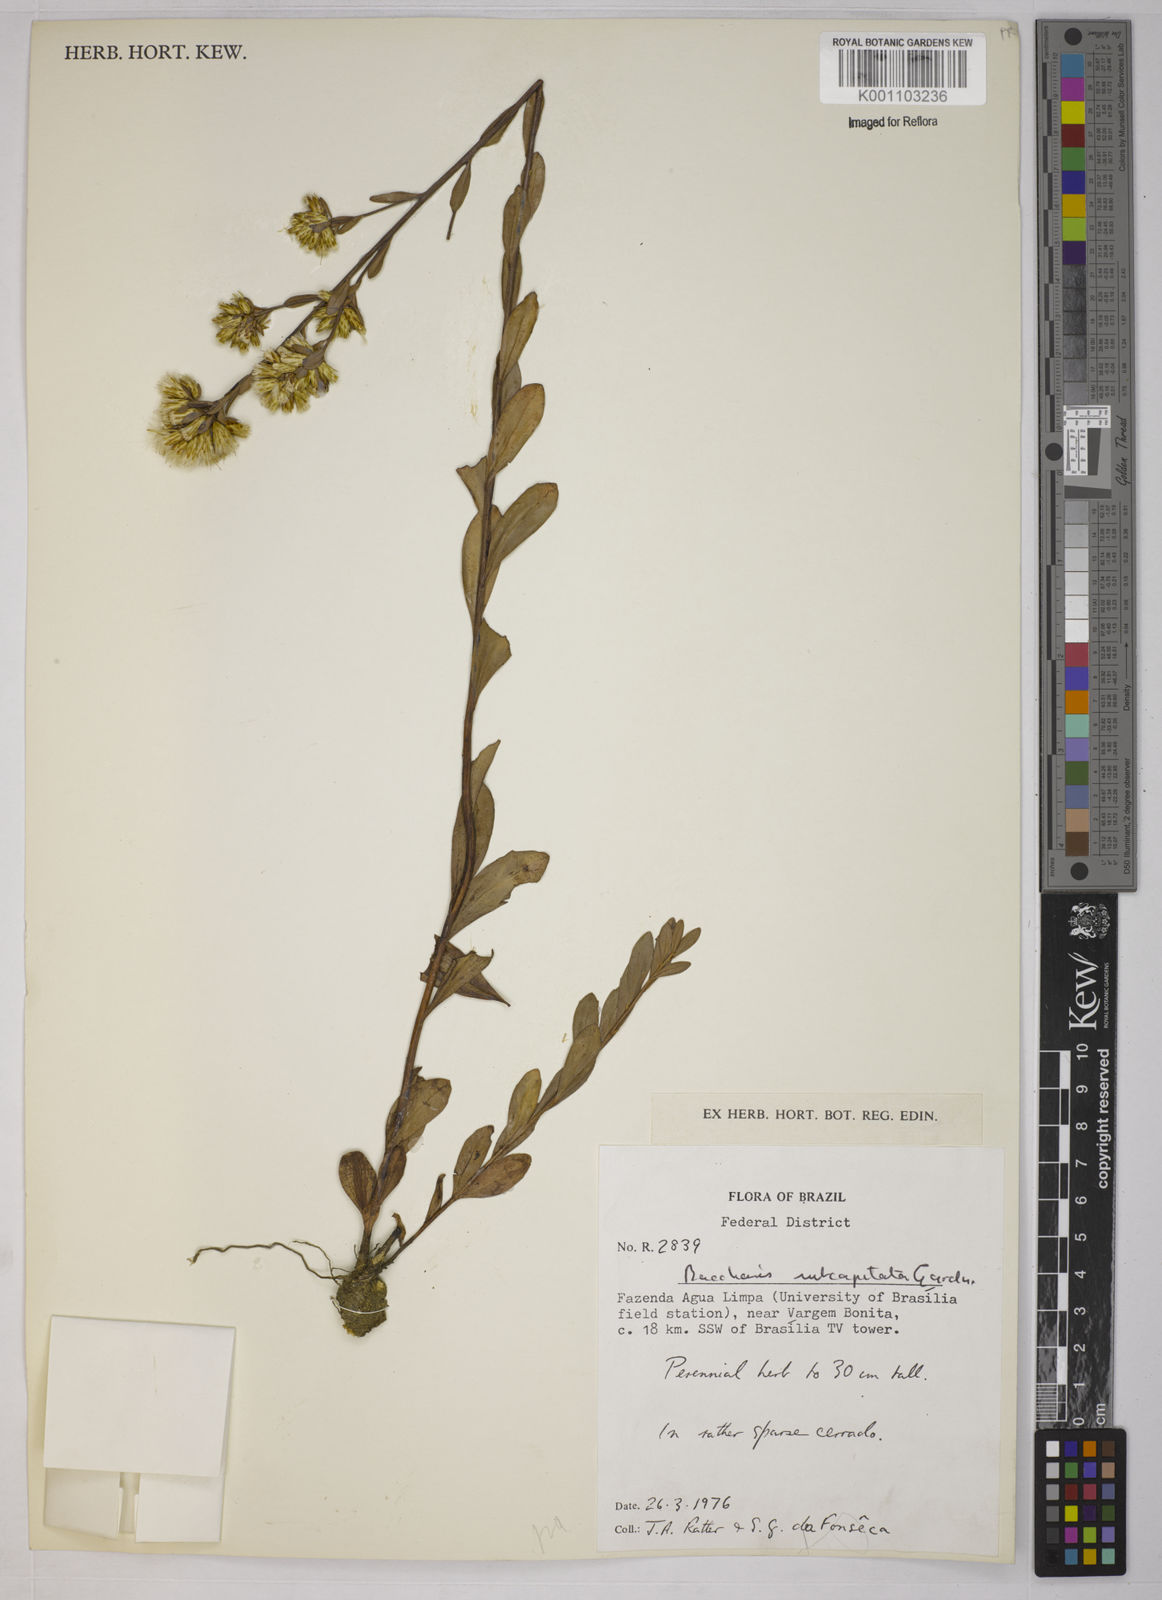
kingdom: Plantae
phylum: Tracheophyta
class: Magnoliopsida
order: Asterales
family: Asteraceae
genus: Baccharis
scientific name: Baccharis subdentata
